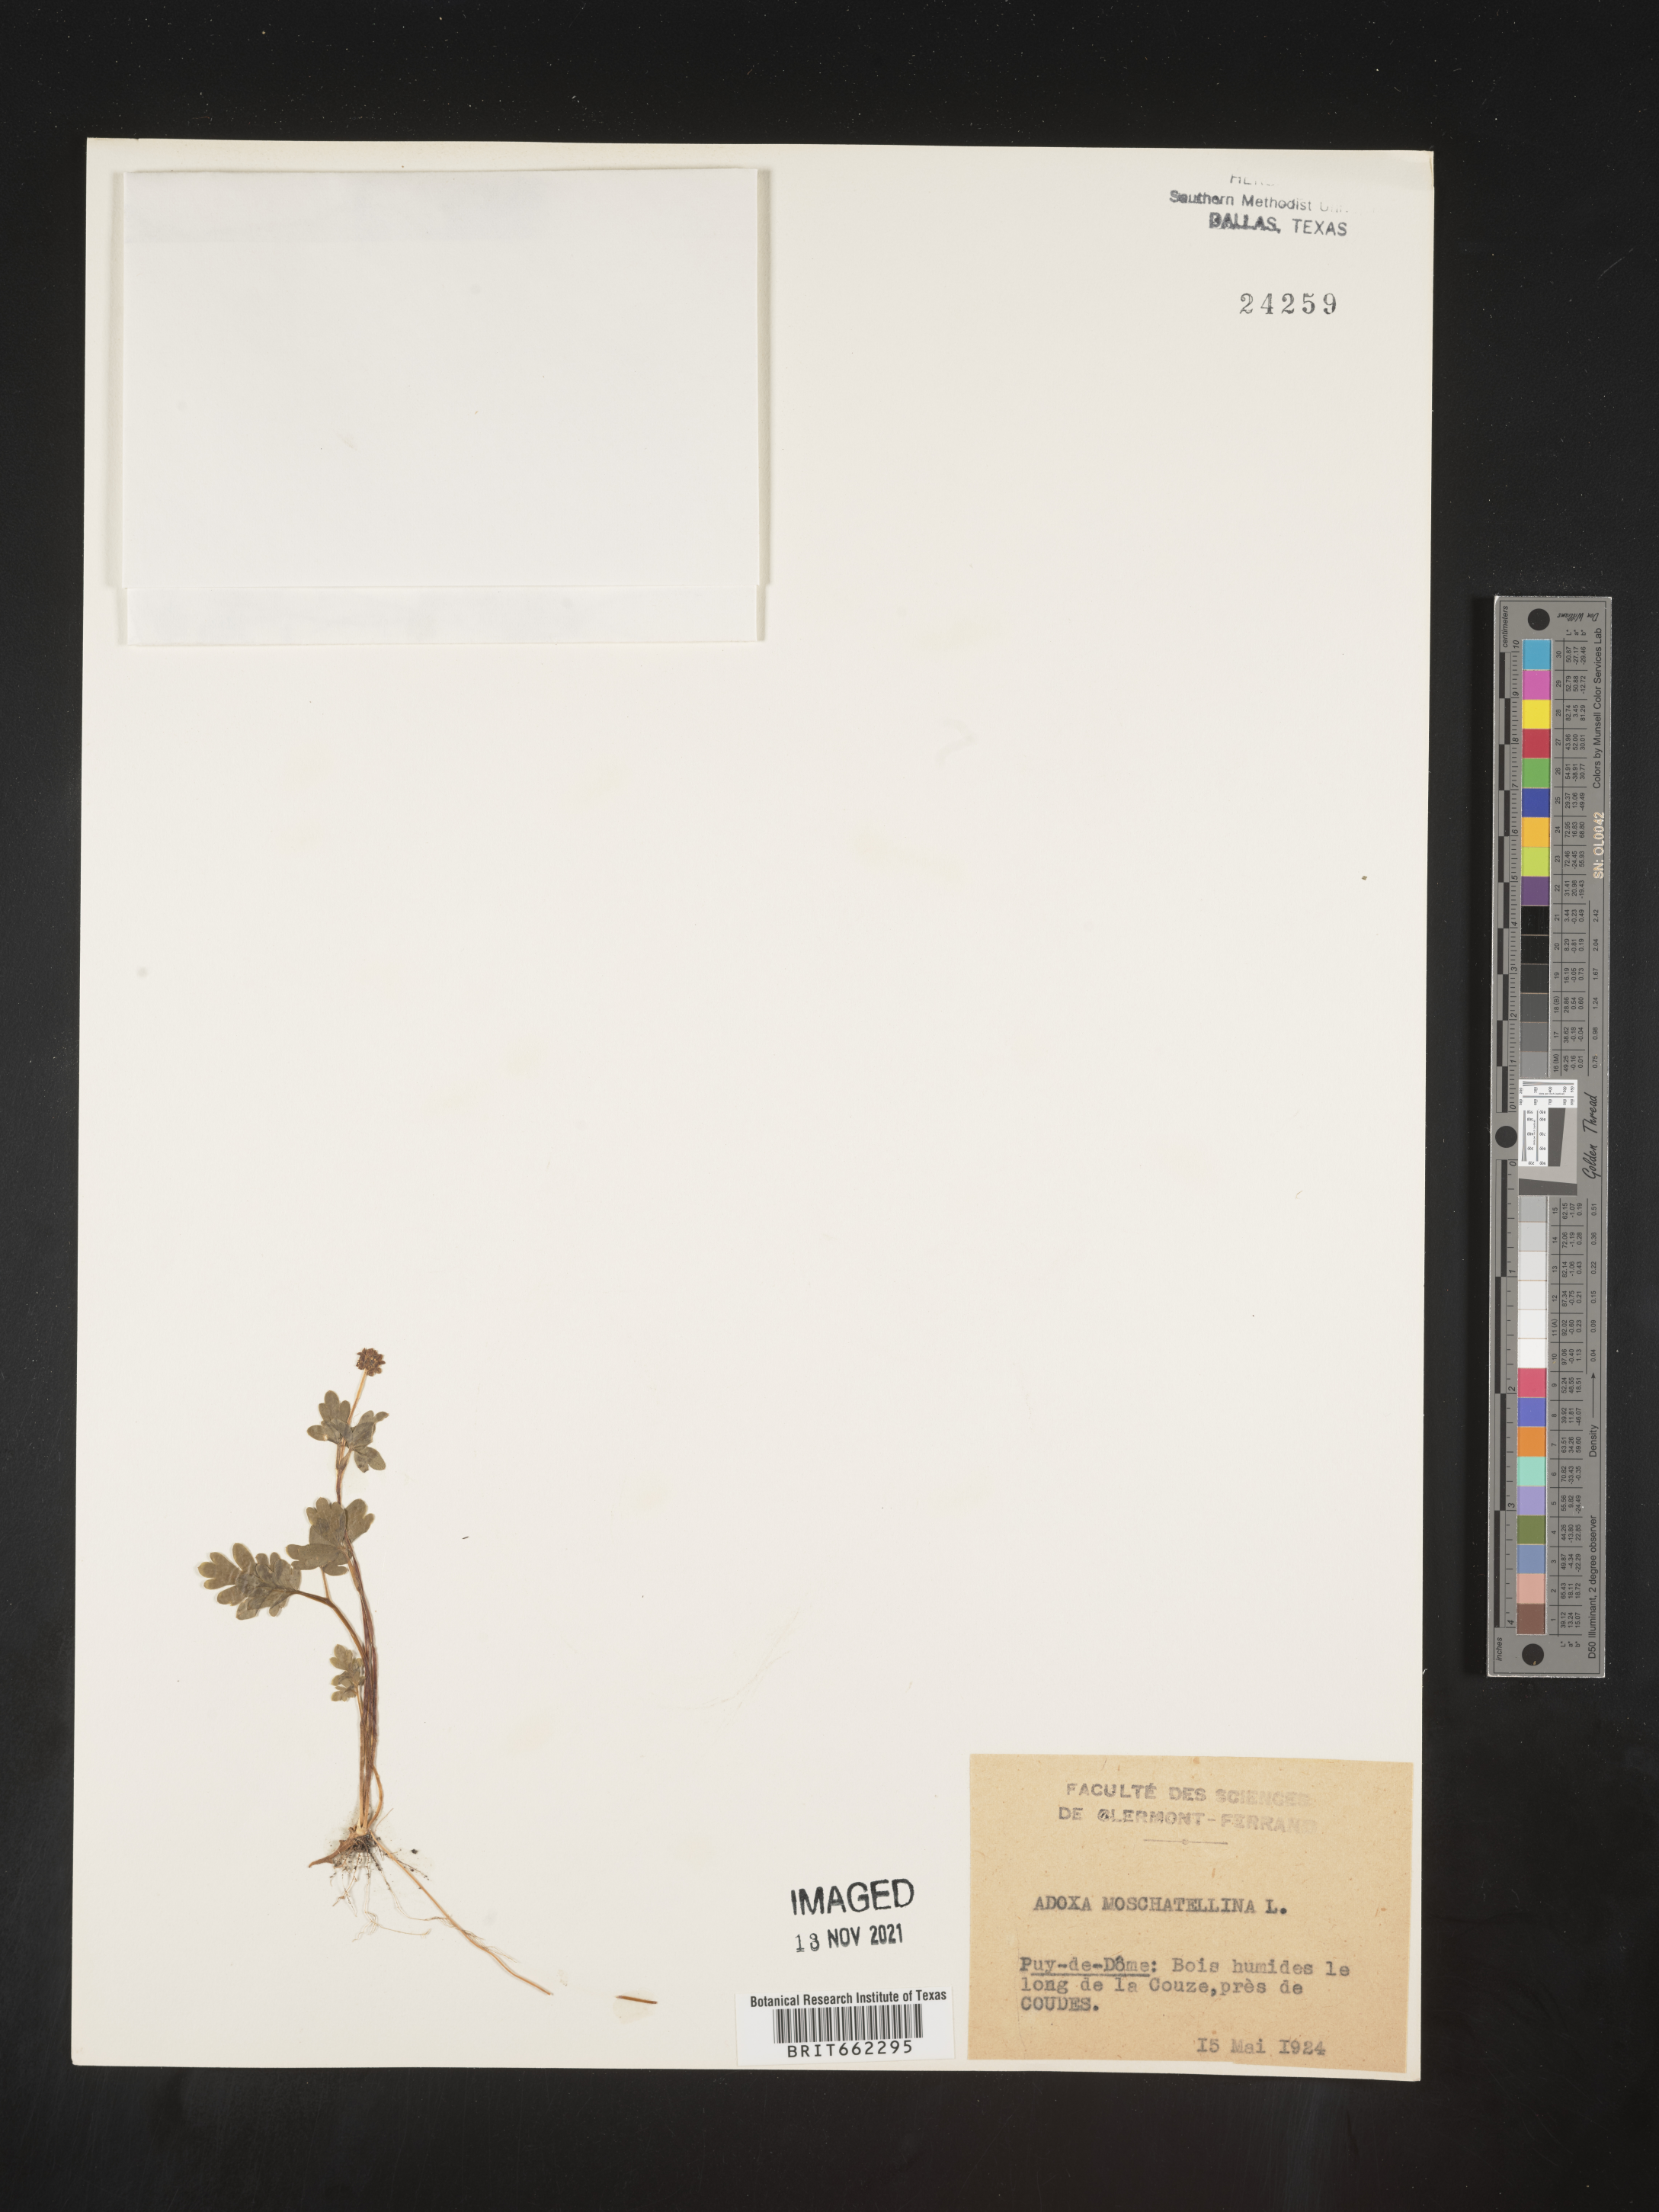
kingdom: Plantae
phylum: Tracheophyta
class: Magnoliopsida
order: Dipsacales
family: Viburnaceae
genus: Adoxa
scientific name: Adoxa
